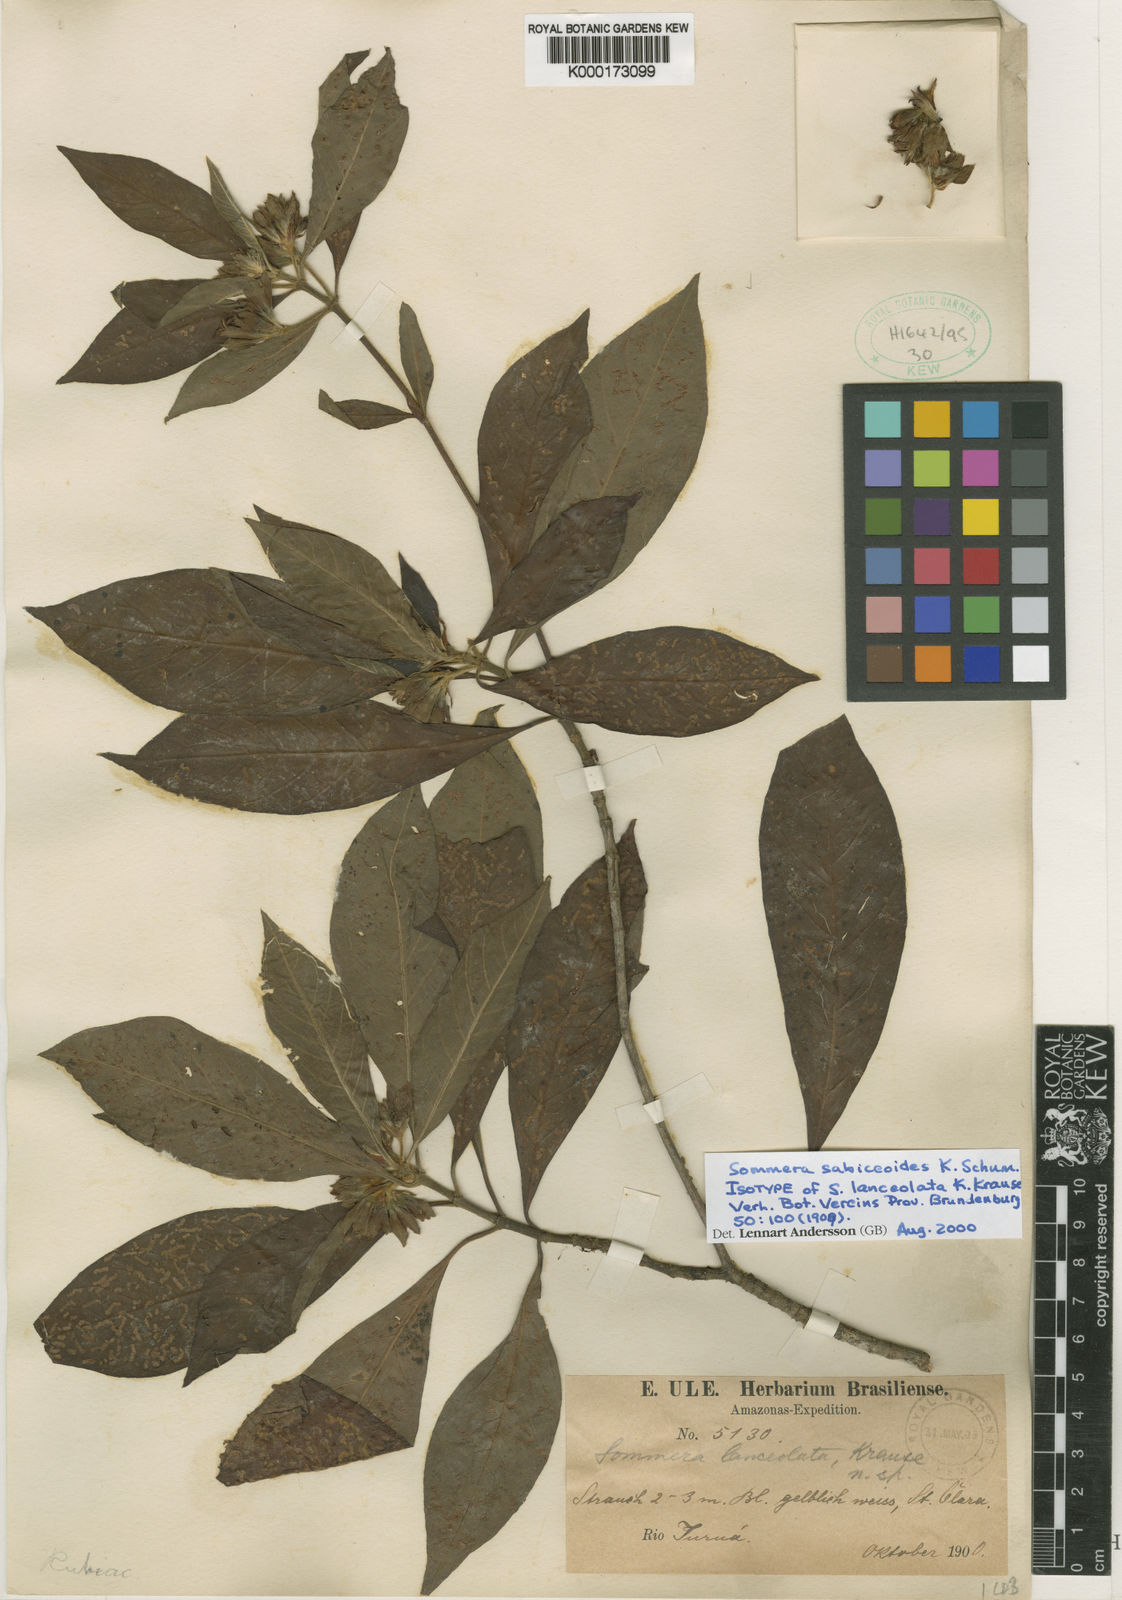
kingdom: Plantae
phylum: Tracheophyta
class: Magnoliopsida
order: Gentianales
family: Rubiaceae
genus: Sommera
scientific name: Sommera sabiceoides
